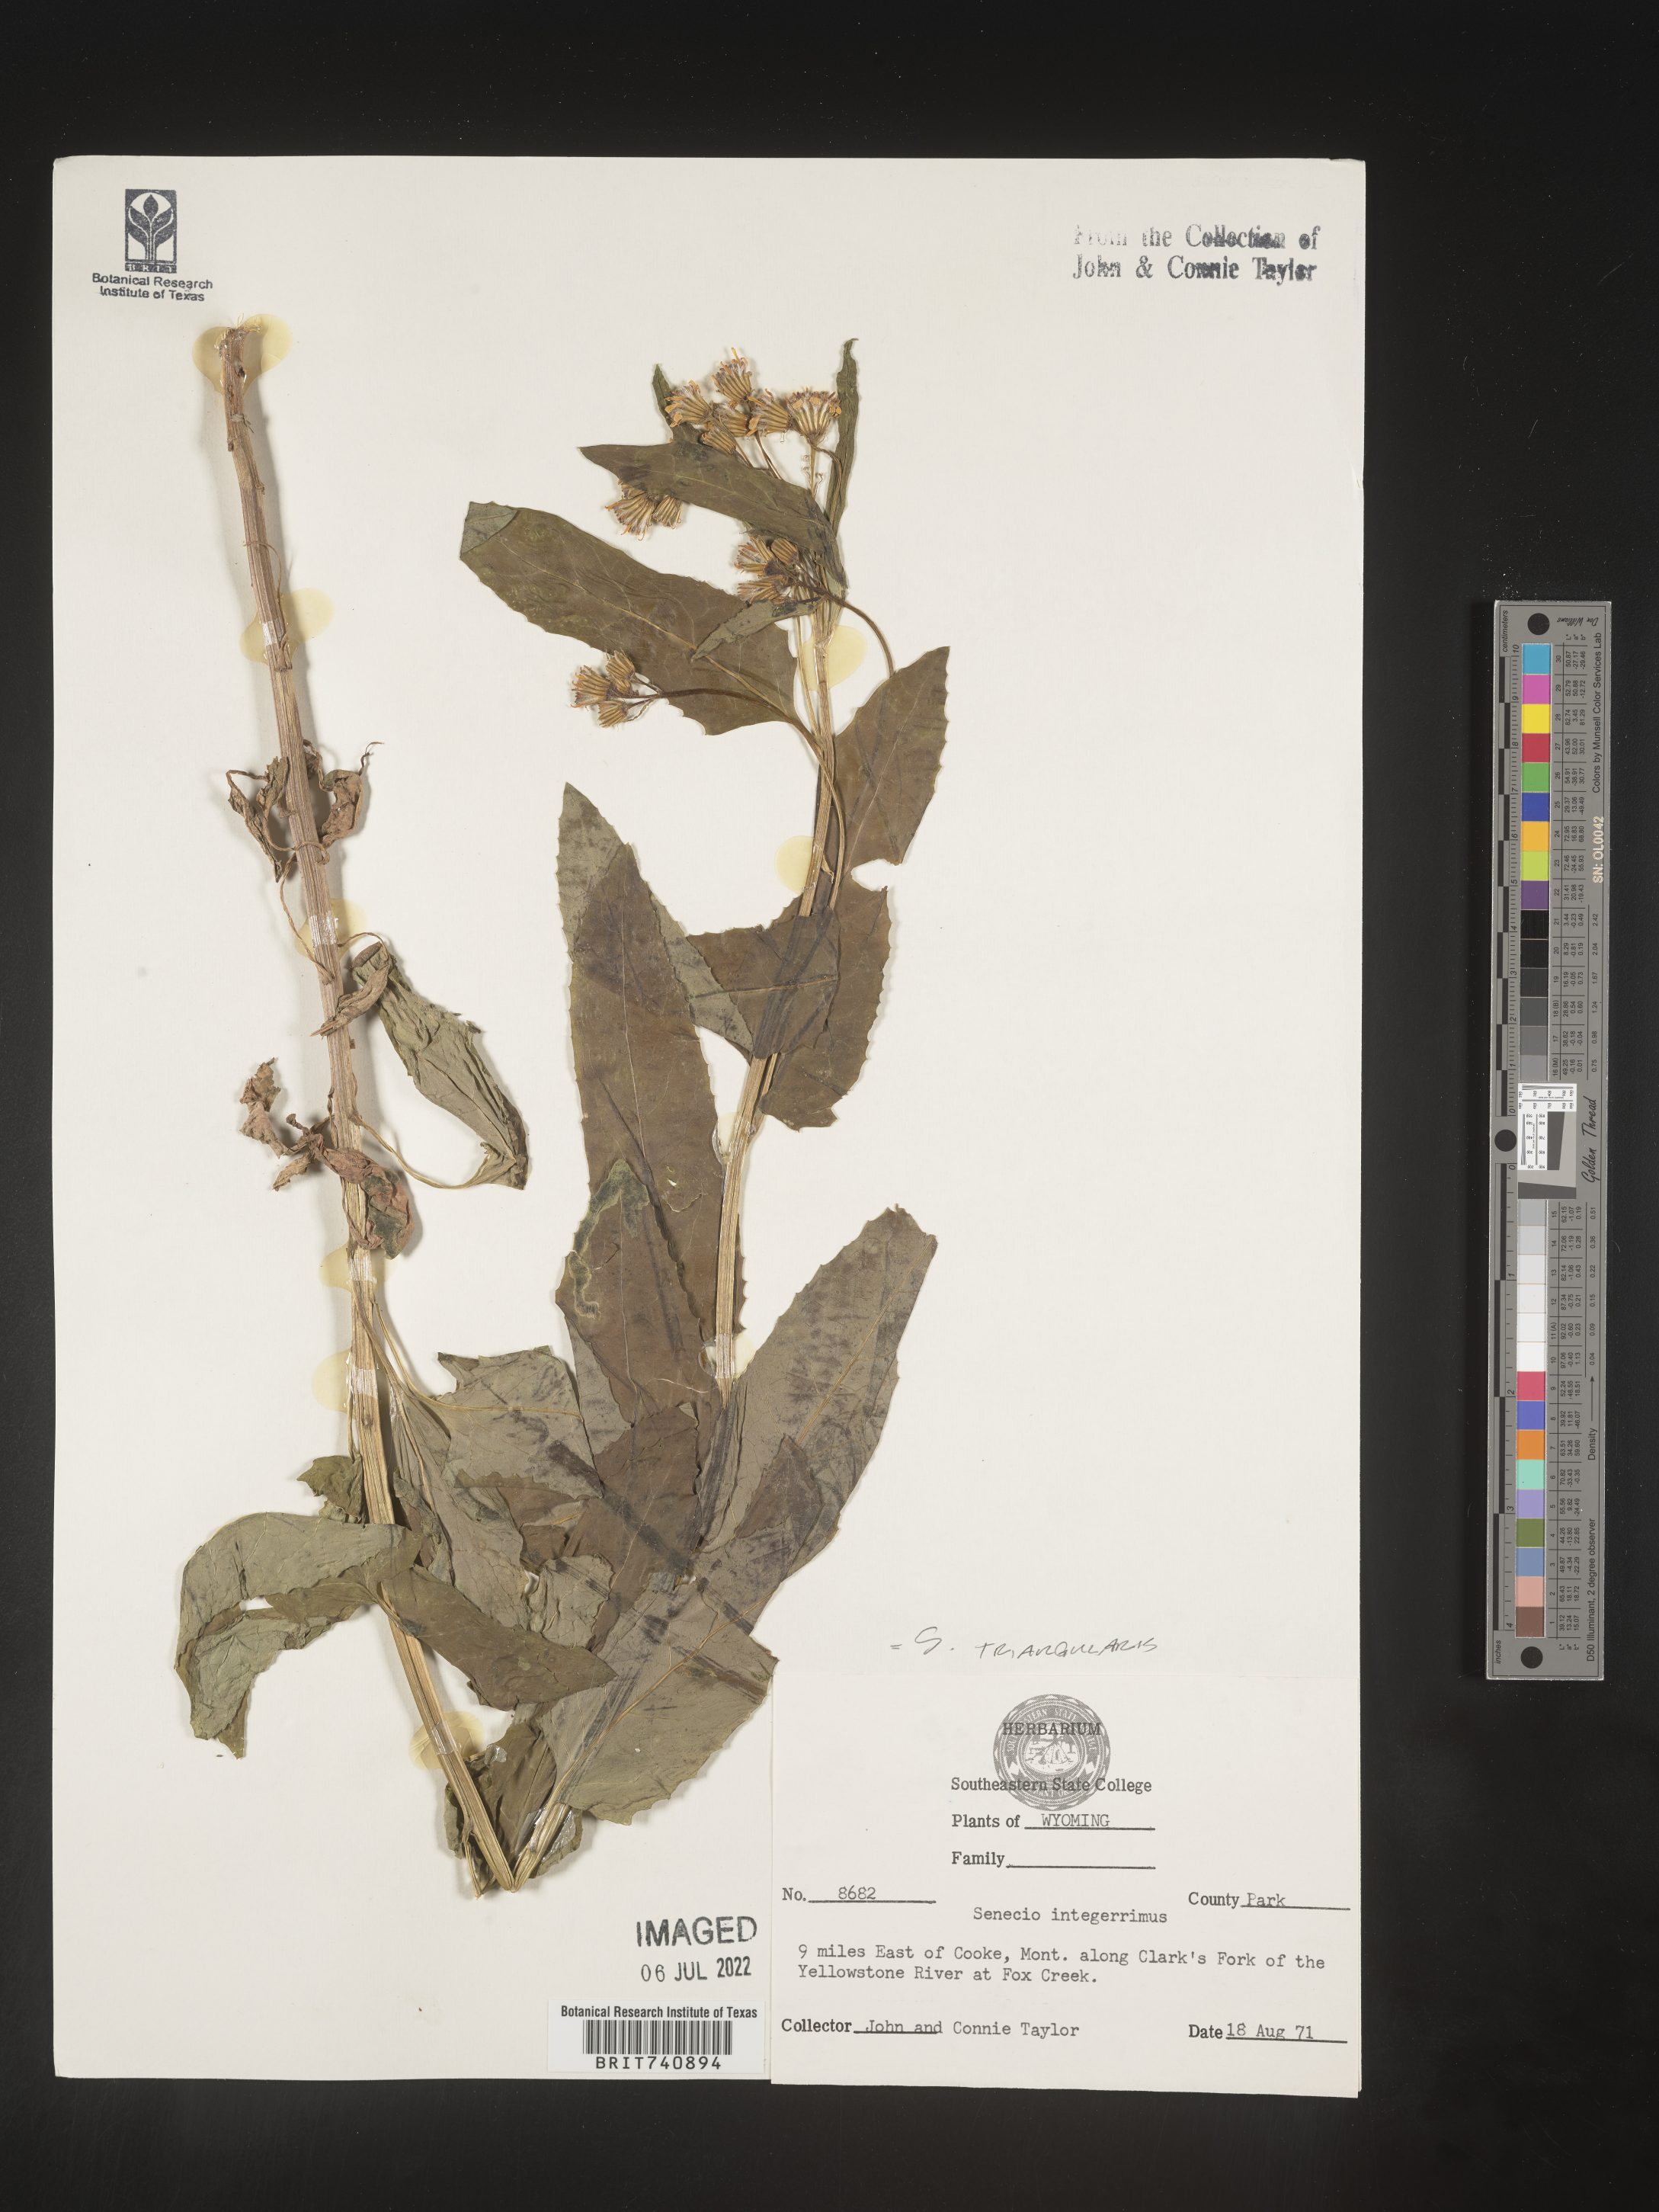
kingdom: Plantae
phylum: Tracheophyta
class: Magnoliopsida
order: Asterales
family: Asteraceae
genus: Senecio
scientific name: Senecio triangularis
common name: Arrowleaf butterweed
